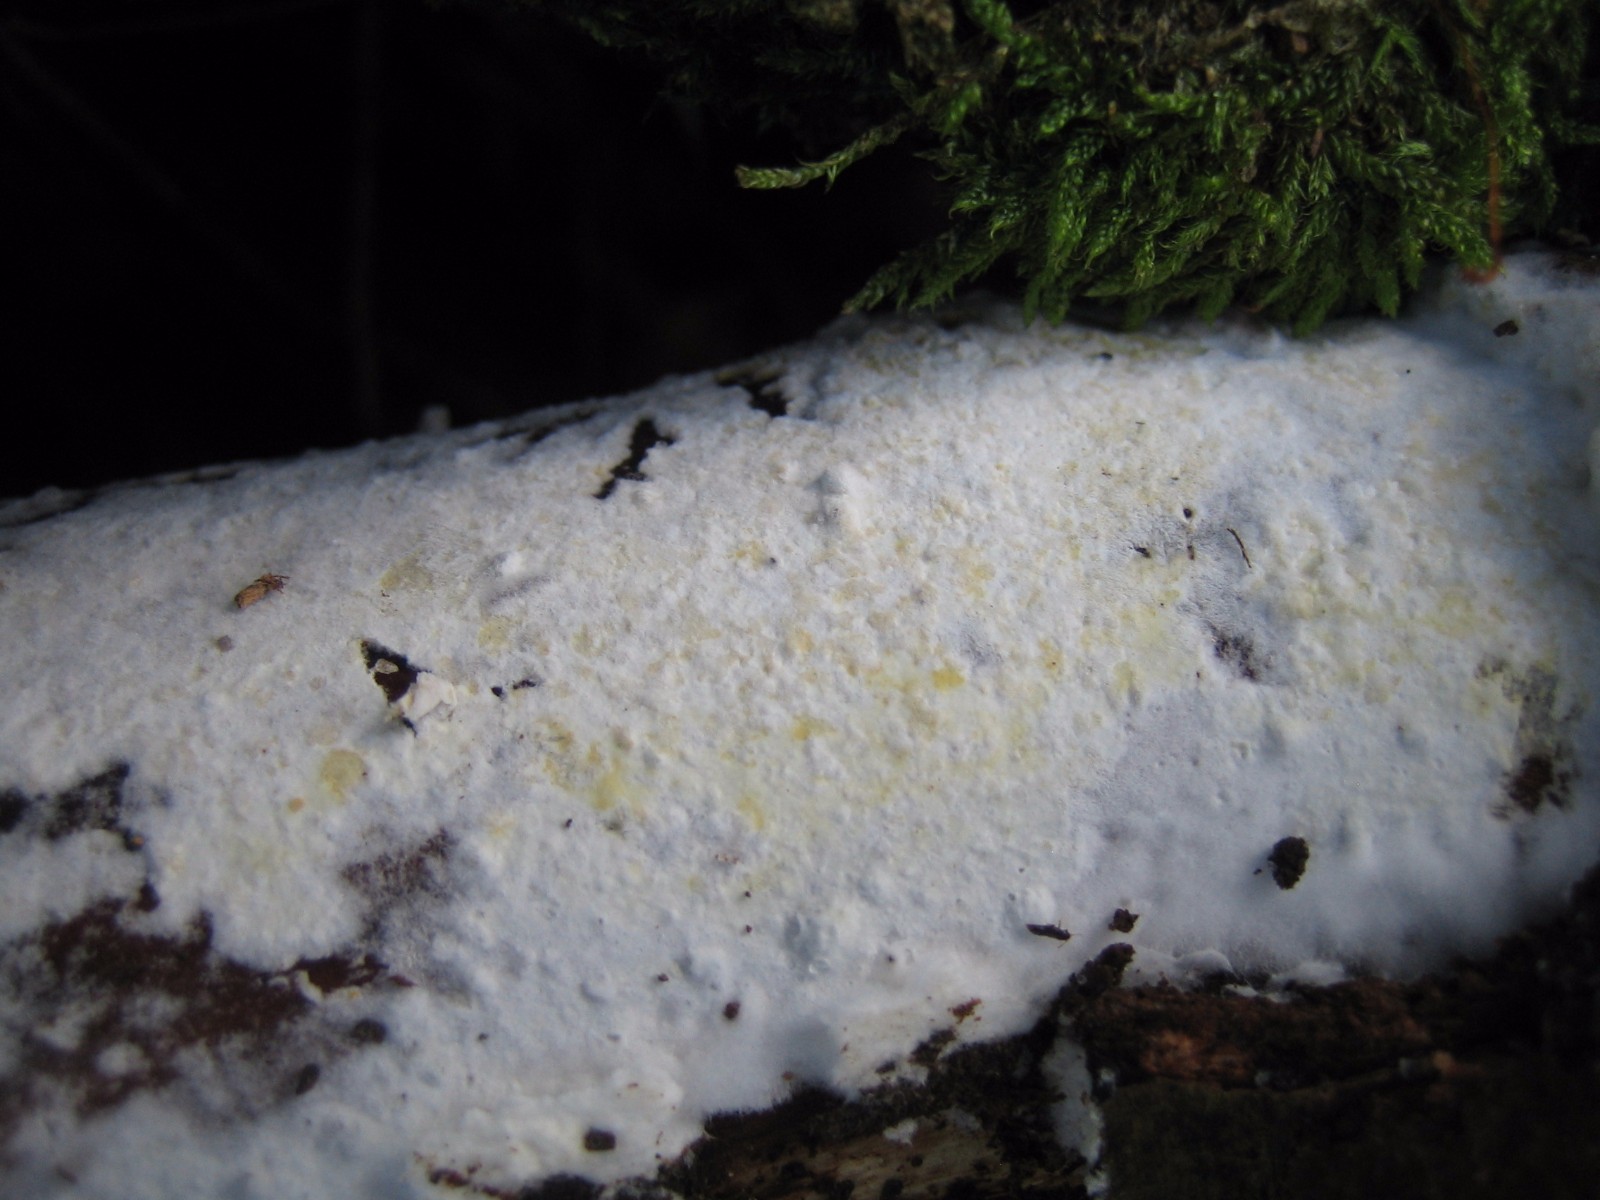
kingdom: Fungi
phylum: Basidiomycota
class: Agaricomycetes
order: Corticiales
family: Corticiaceae
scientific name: Corticiaceae
